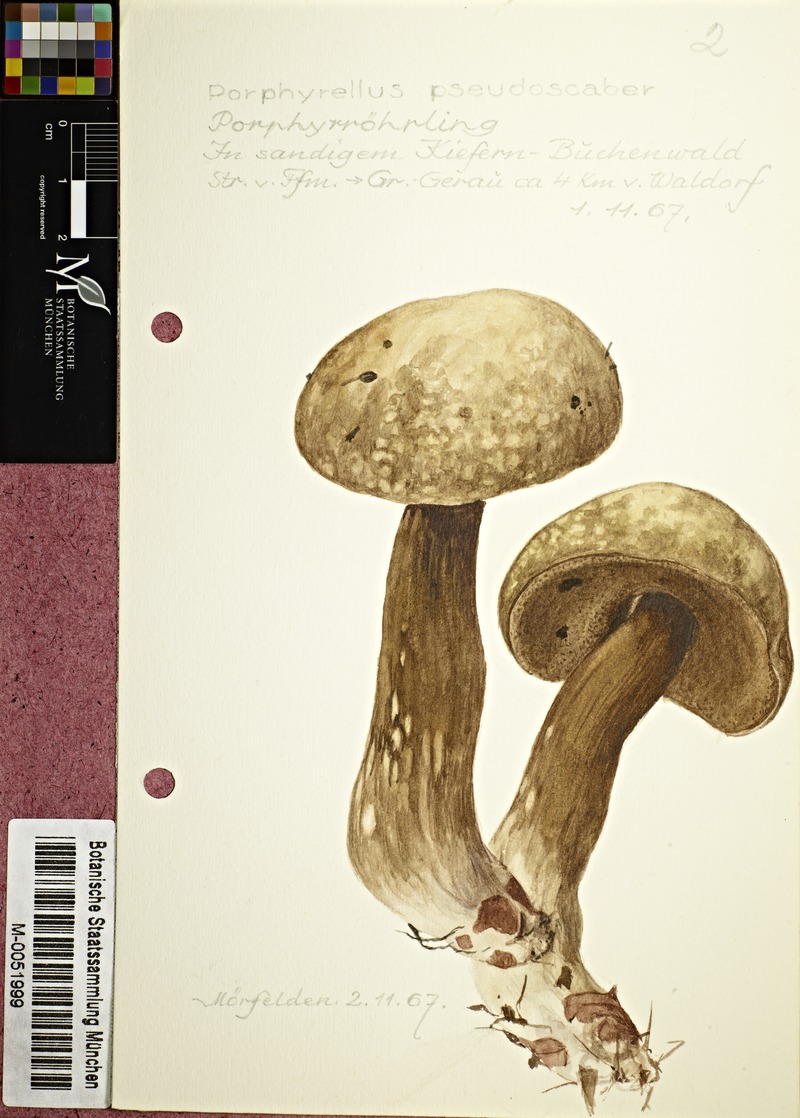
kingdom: Fungi
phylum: Basidiomycota
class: Agaricomycetes
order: Boletales
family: Boletaceae
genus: Porphyrellus
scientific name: Porphyrellus porphyrosporus
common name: Dusky bolete
